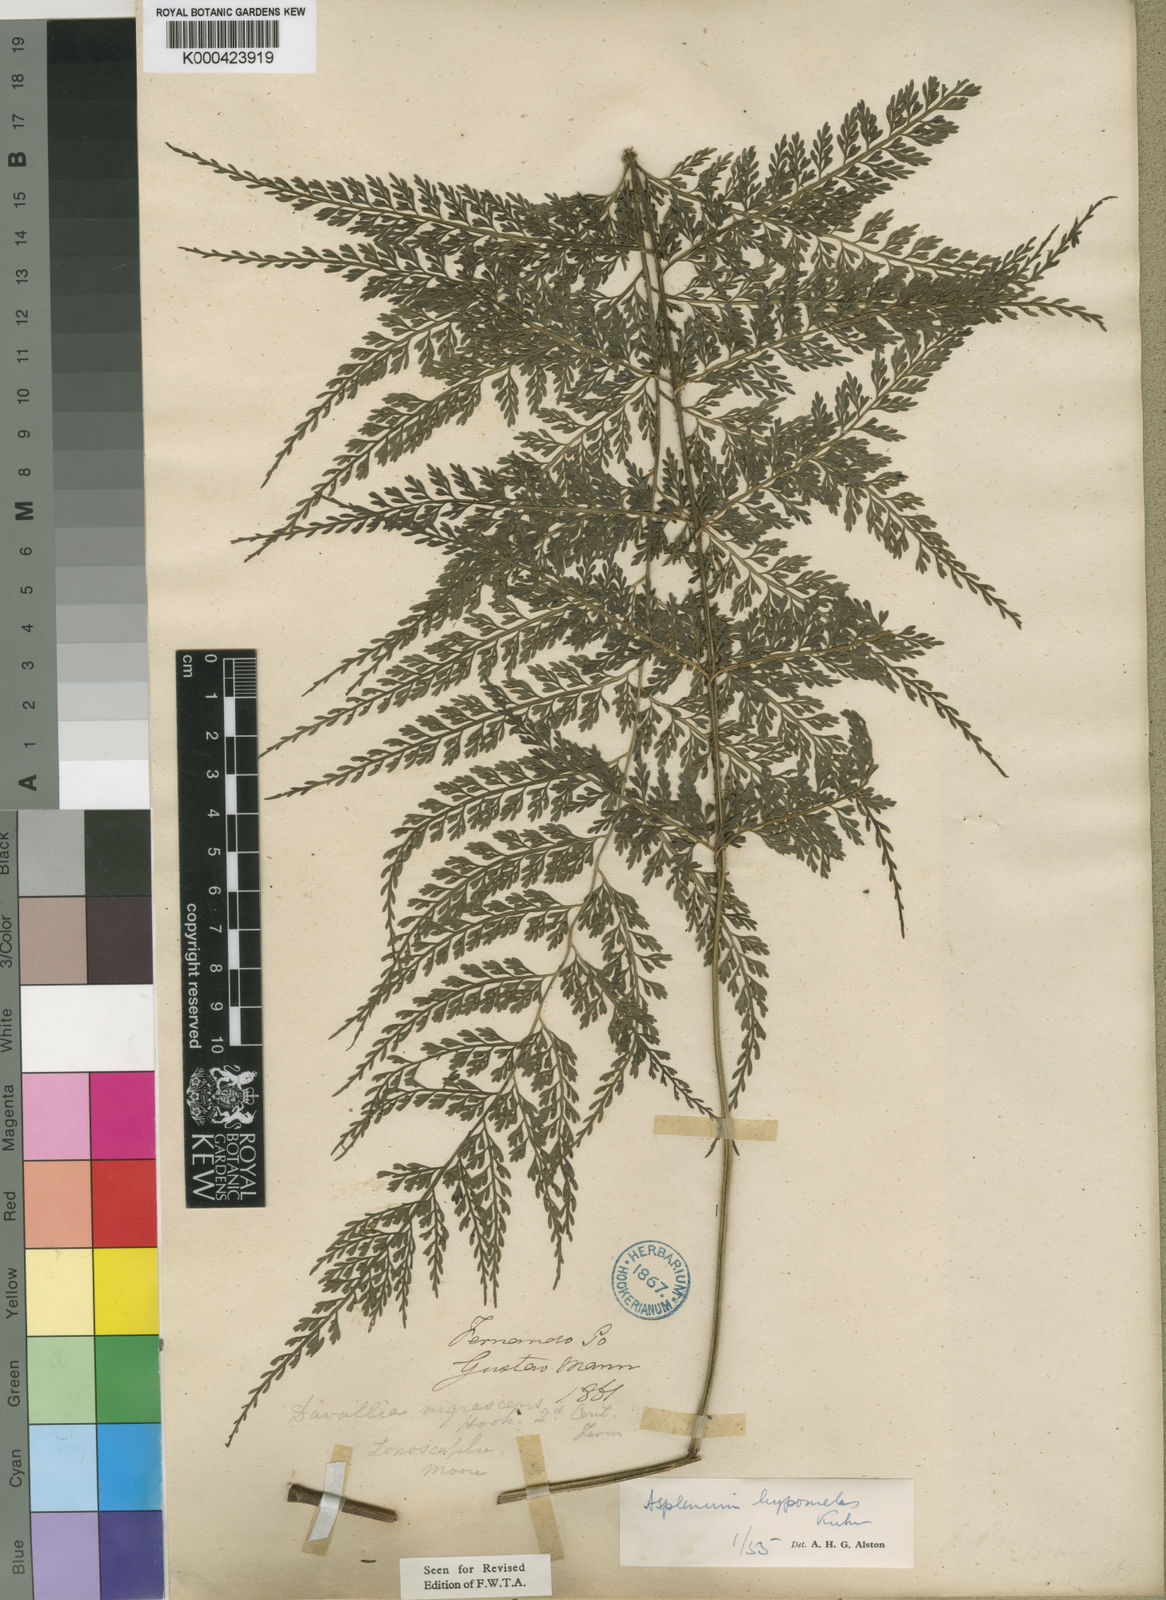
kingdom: Plantae
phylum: Tracheophyta
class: Polypodiopsida
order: Polypodiales
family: Aspleniaceae
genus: Asplenium
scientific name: Asplenium hypomelas
